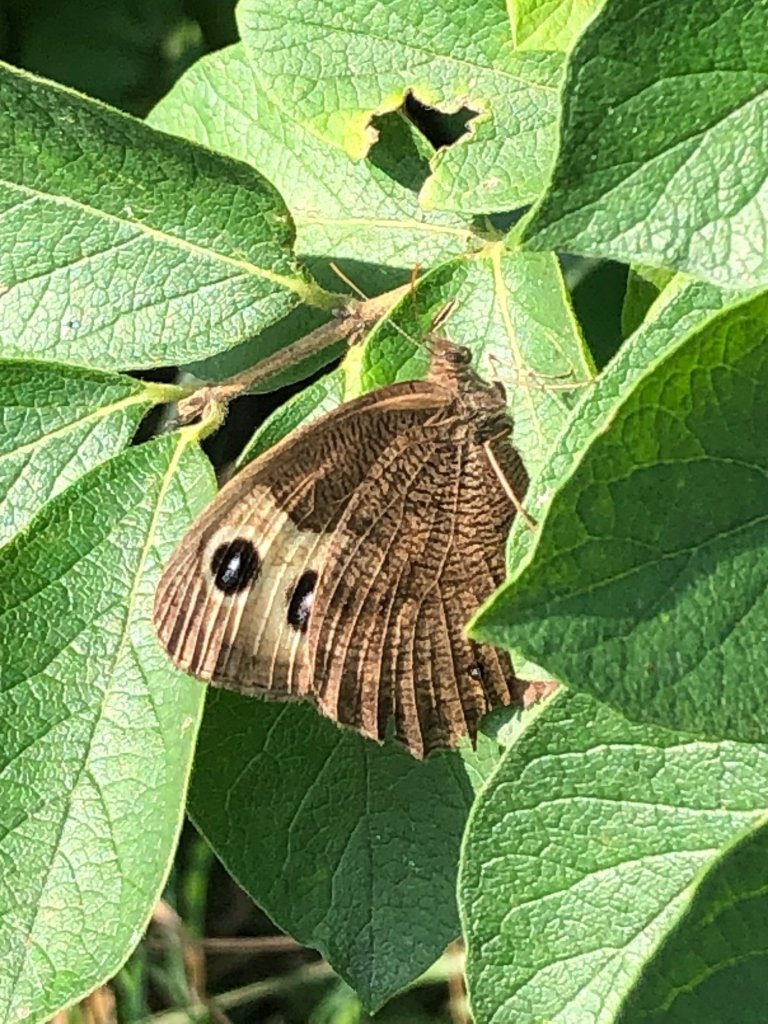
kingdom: Animalia
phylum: Arthropoda
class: Insecta
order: Lepidoptera
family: Nymphalidae
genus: Cercyonis
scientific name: Cercyonis pegala
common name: Common Wood-Nymph
